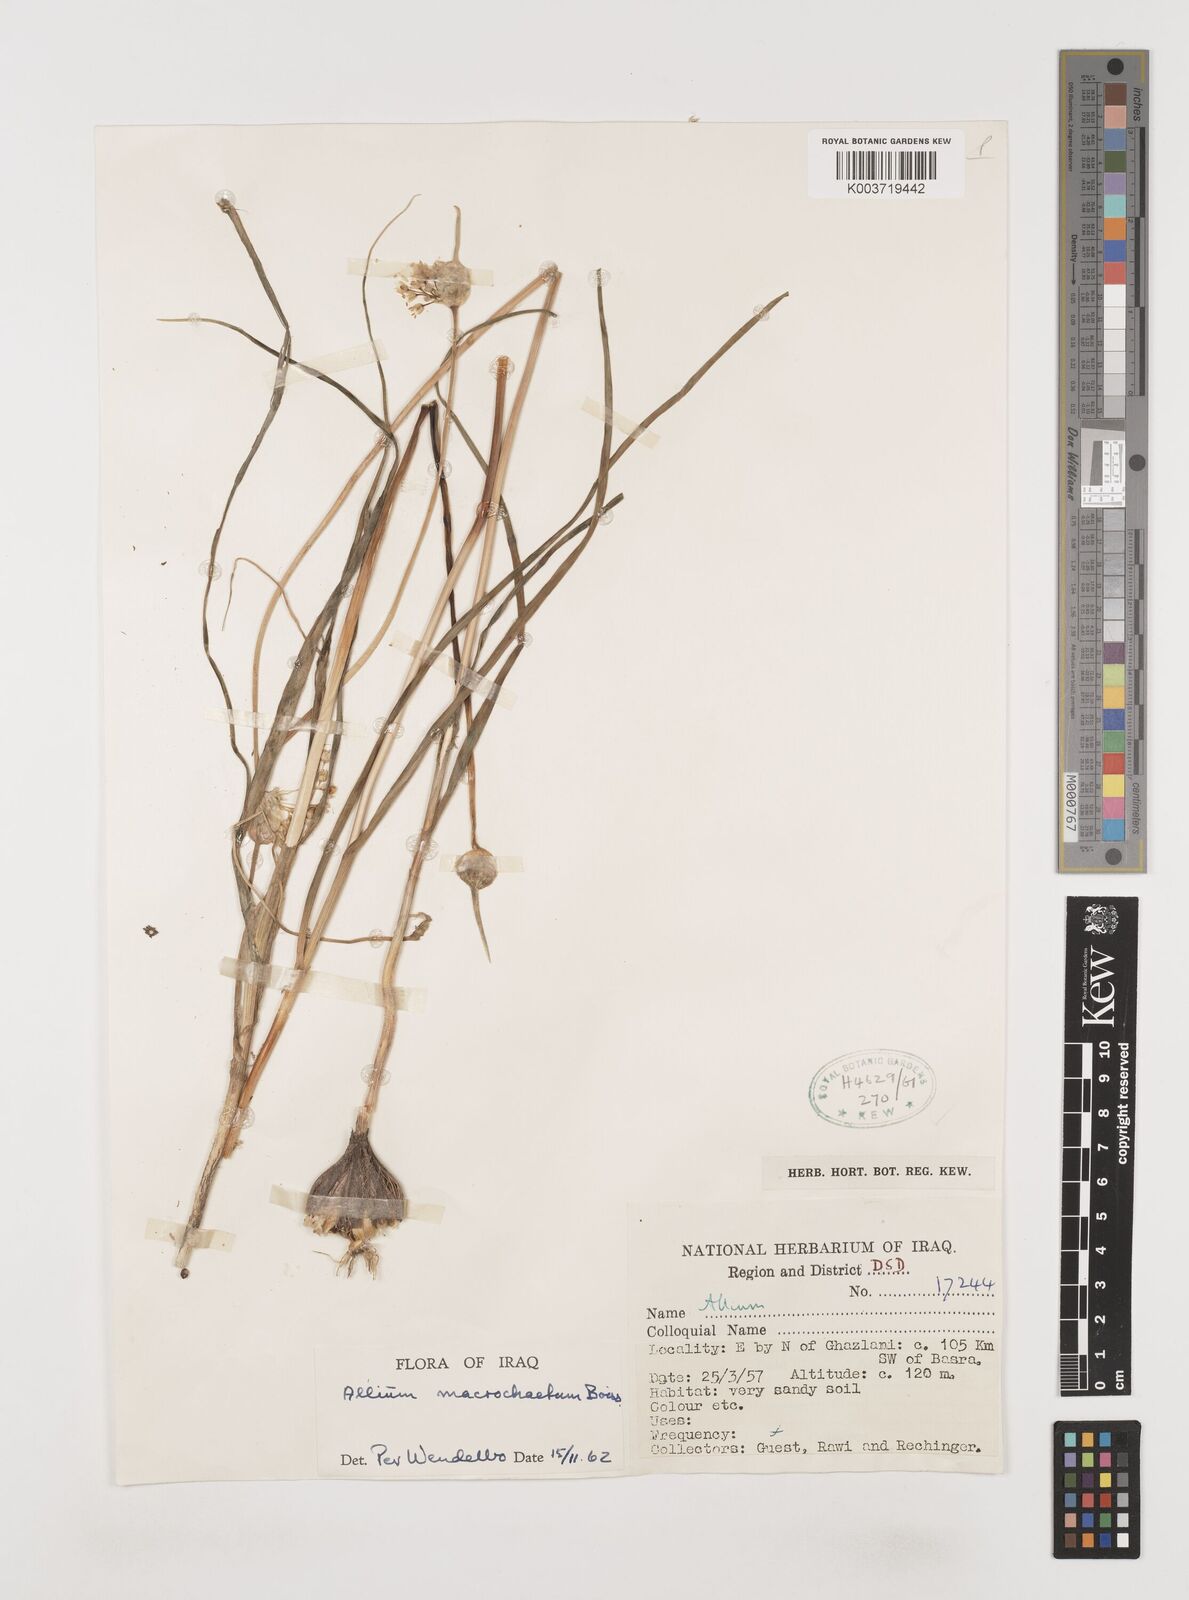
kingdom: Plantae
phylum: Tracheophyta
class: Liliopsida
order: Asparagales
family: Amaryllidaceae
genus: Allium
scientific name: Allium deserti-syriaci
